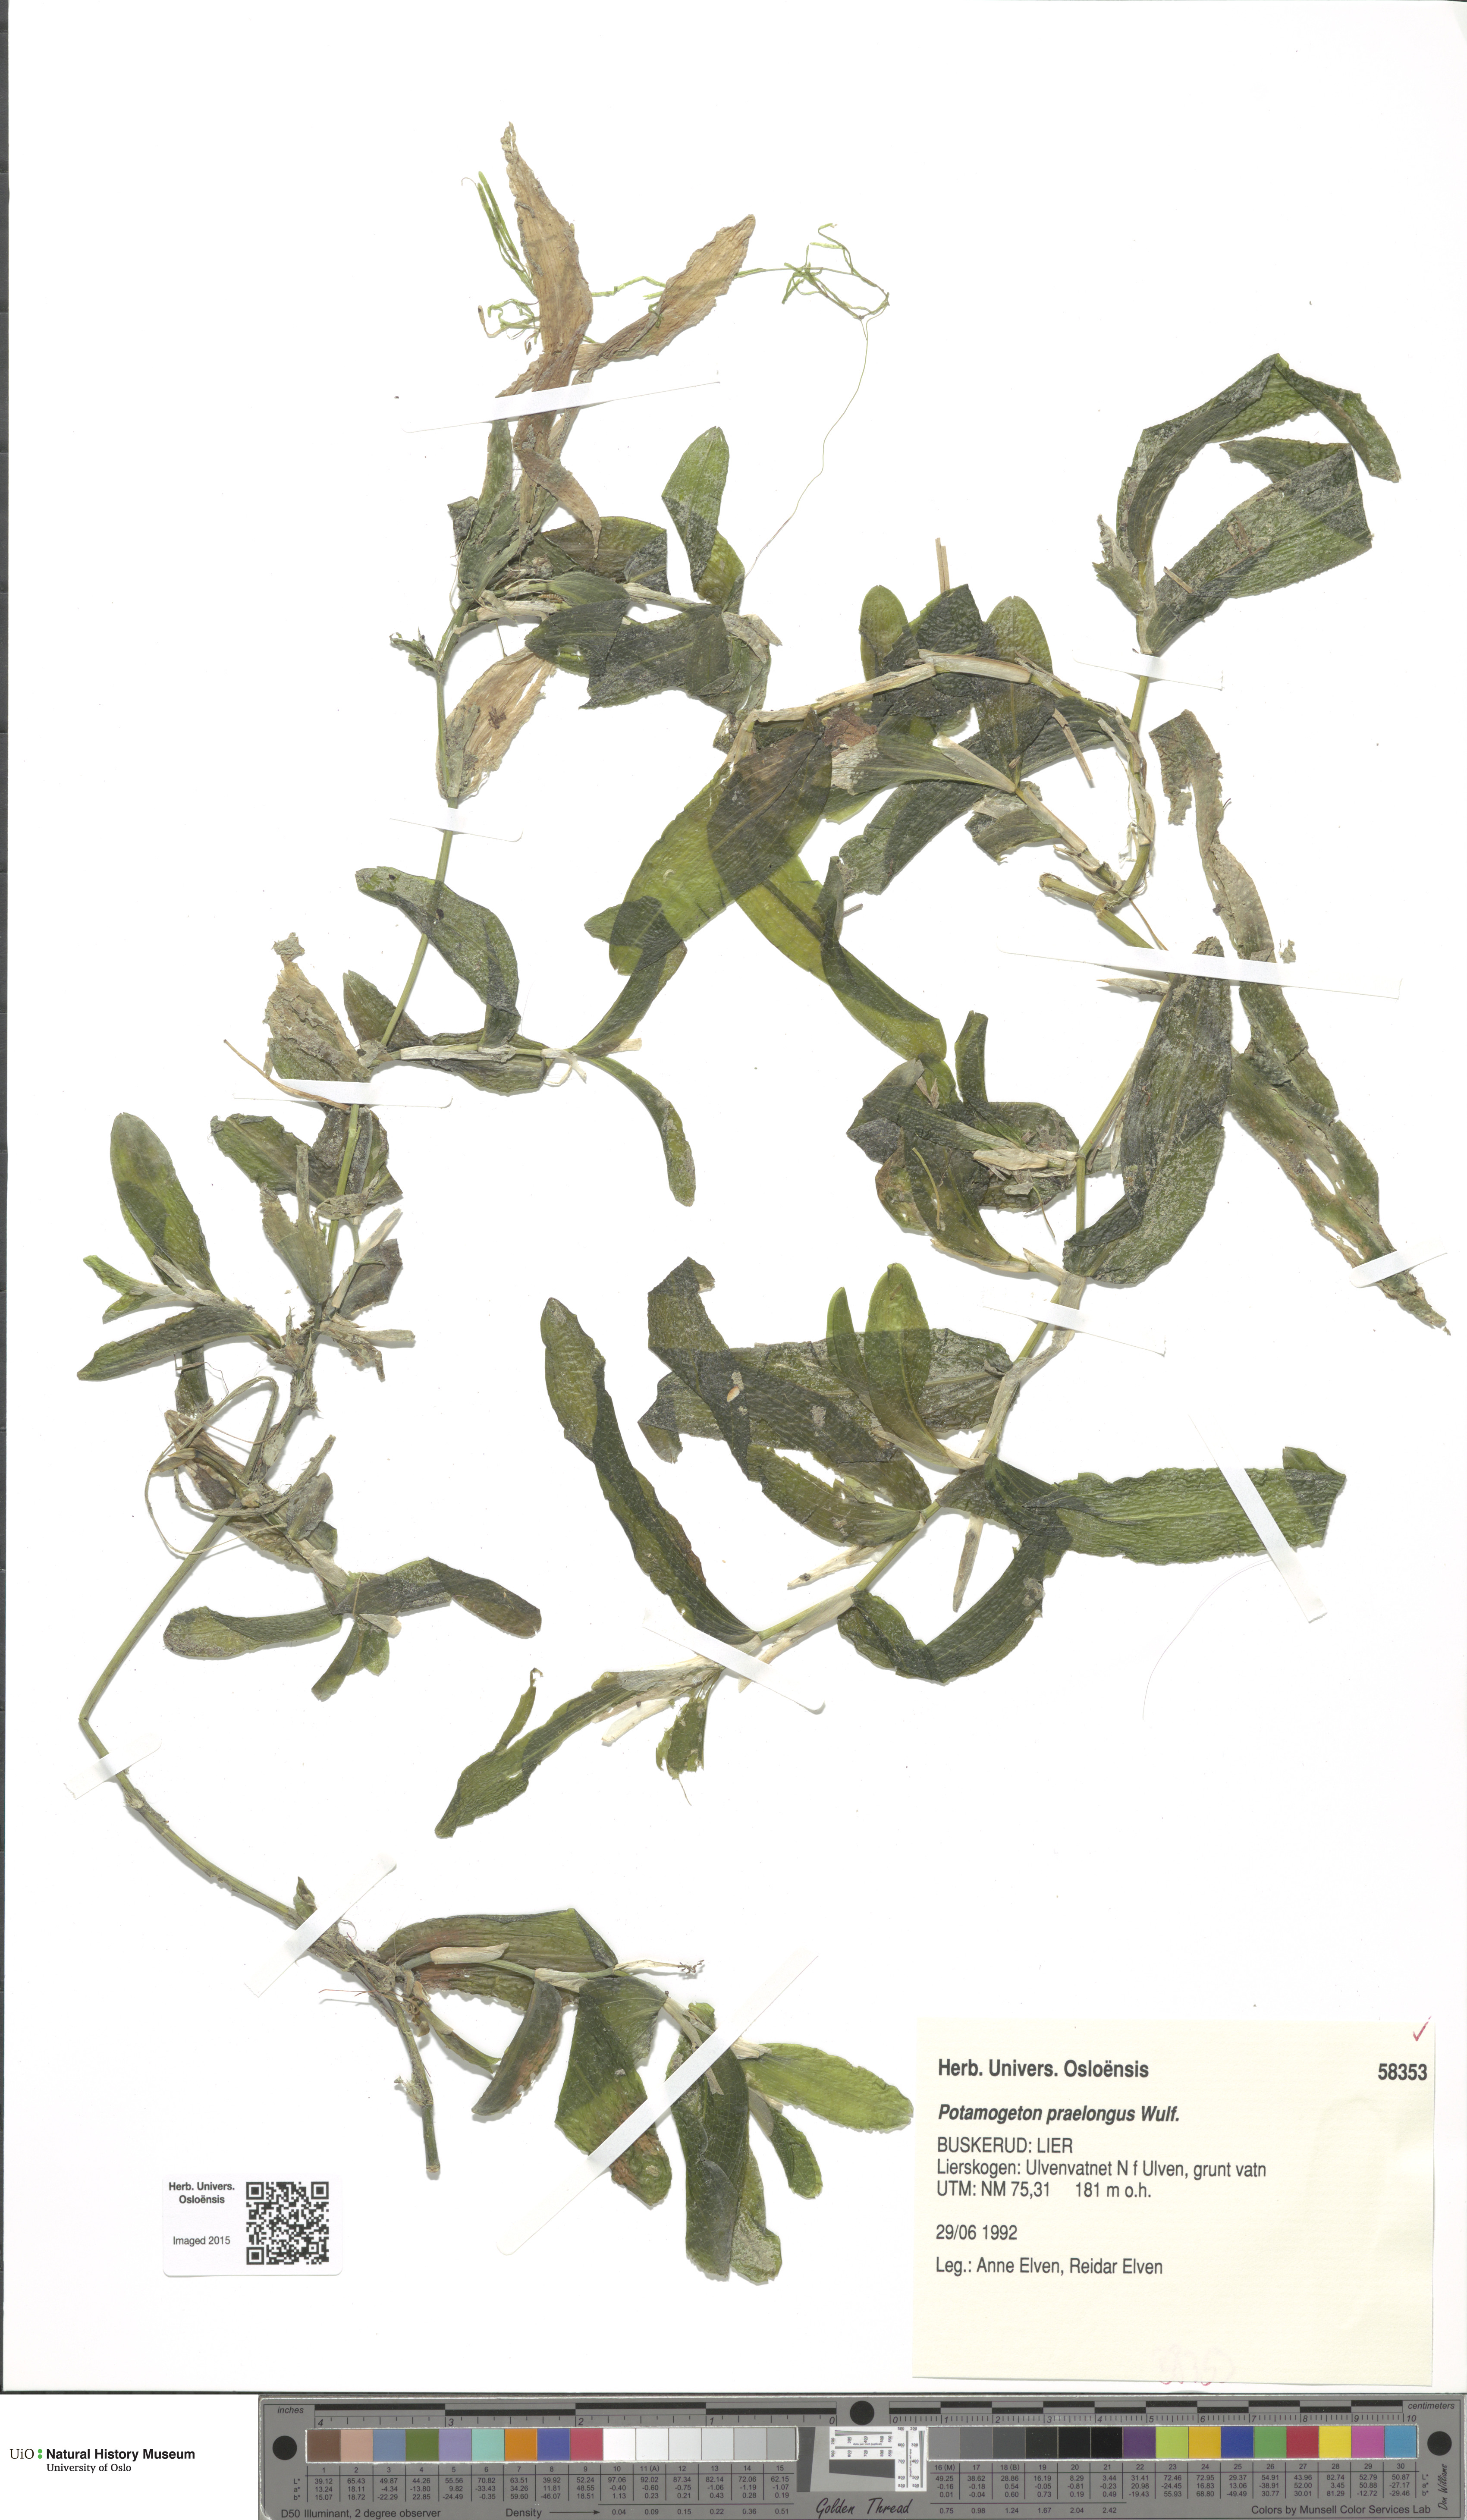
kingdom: Plantae
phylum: Tracheophyta
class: Liliopsida
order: Alismatales
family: Potamogetonaceae
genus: Potamogeton
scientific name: Potamogeton praelongus
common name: Long-stalked pondweed
